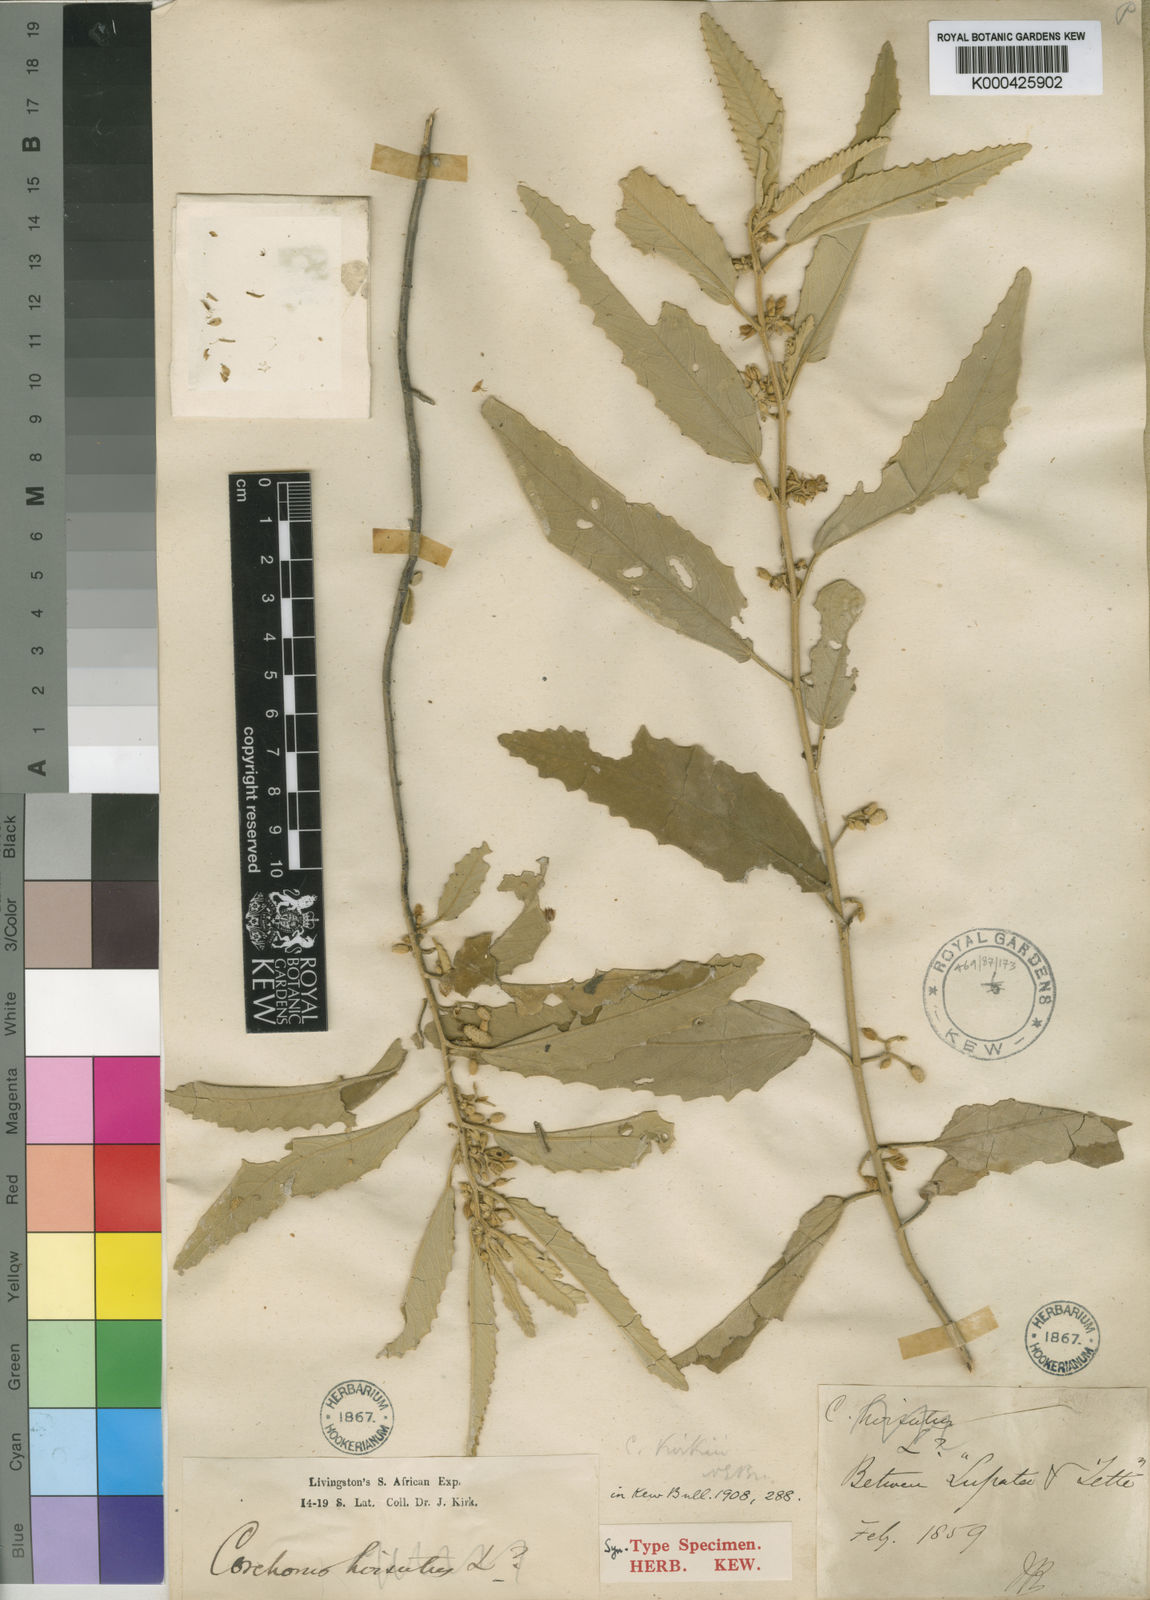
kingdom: Plantae
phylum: Tracheophyta
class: Magnoliopsida
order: Malvales
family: Malvaceae
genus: Corchorus
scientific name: Corchorus kirkii
